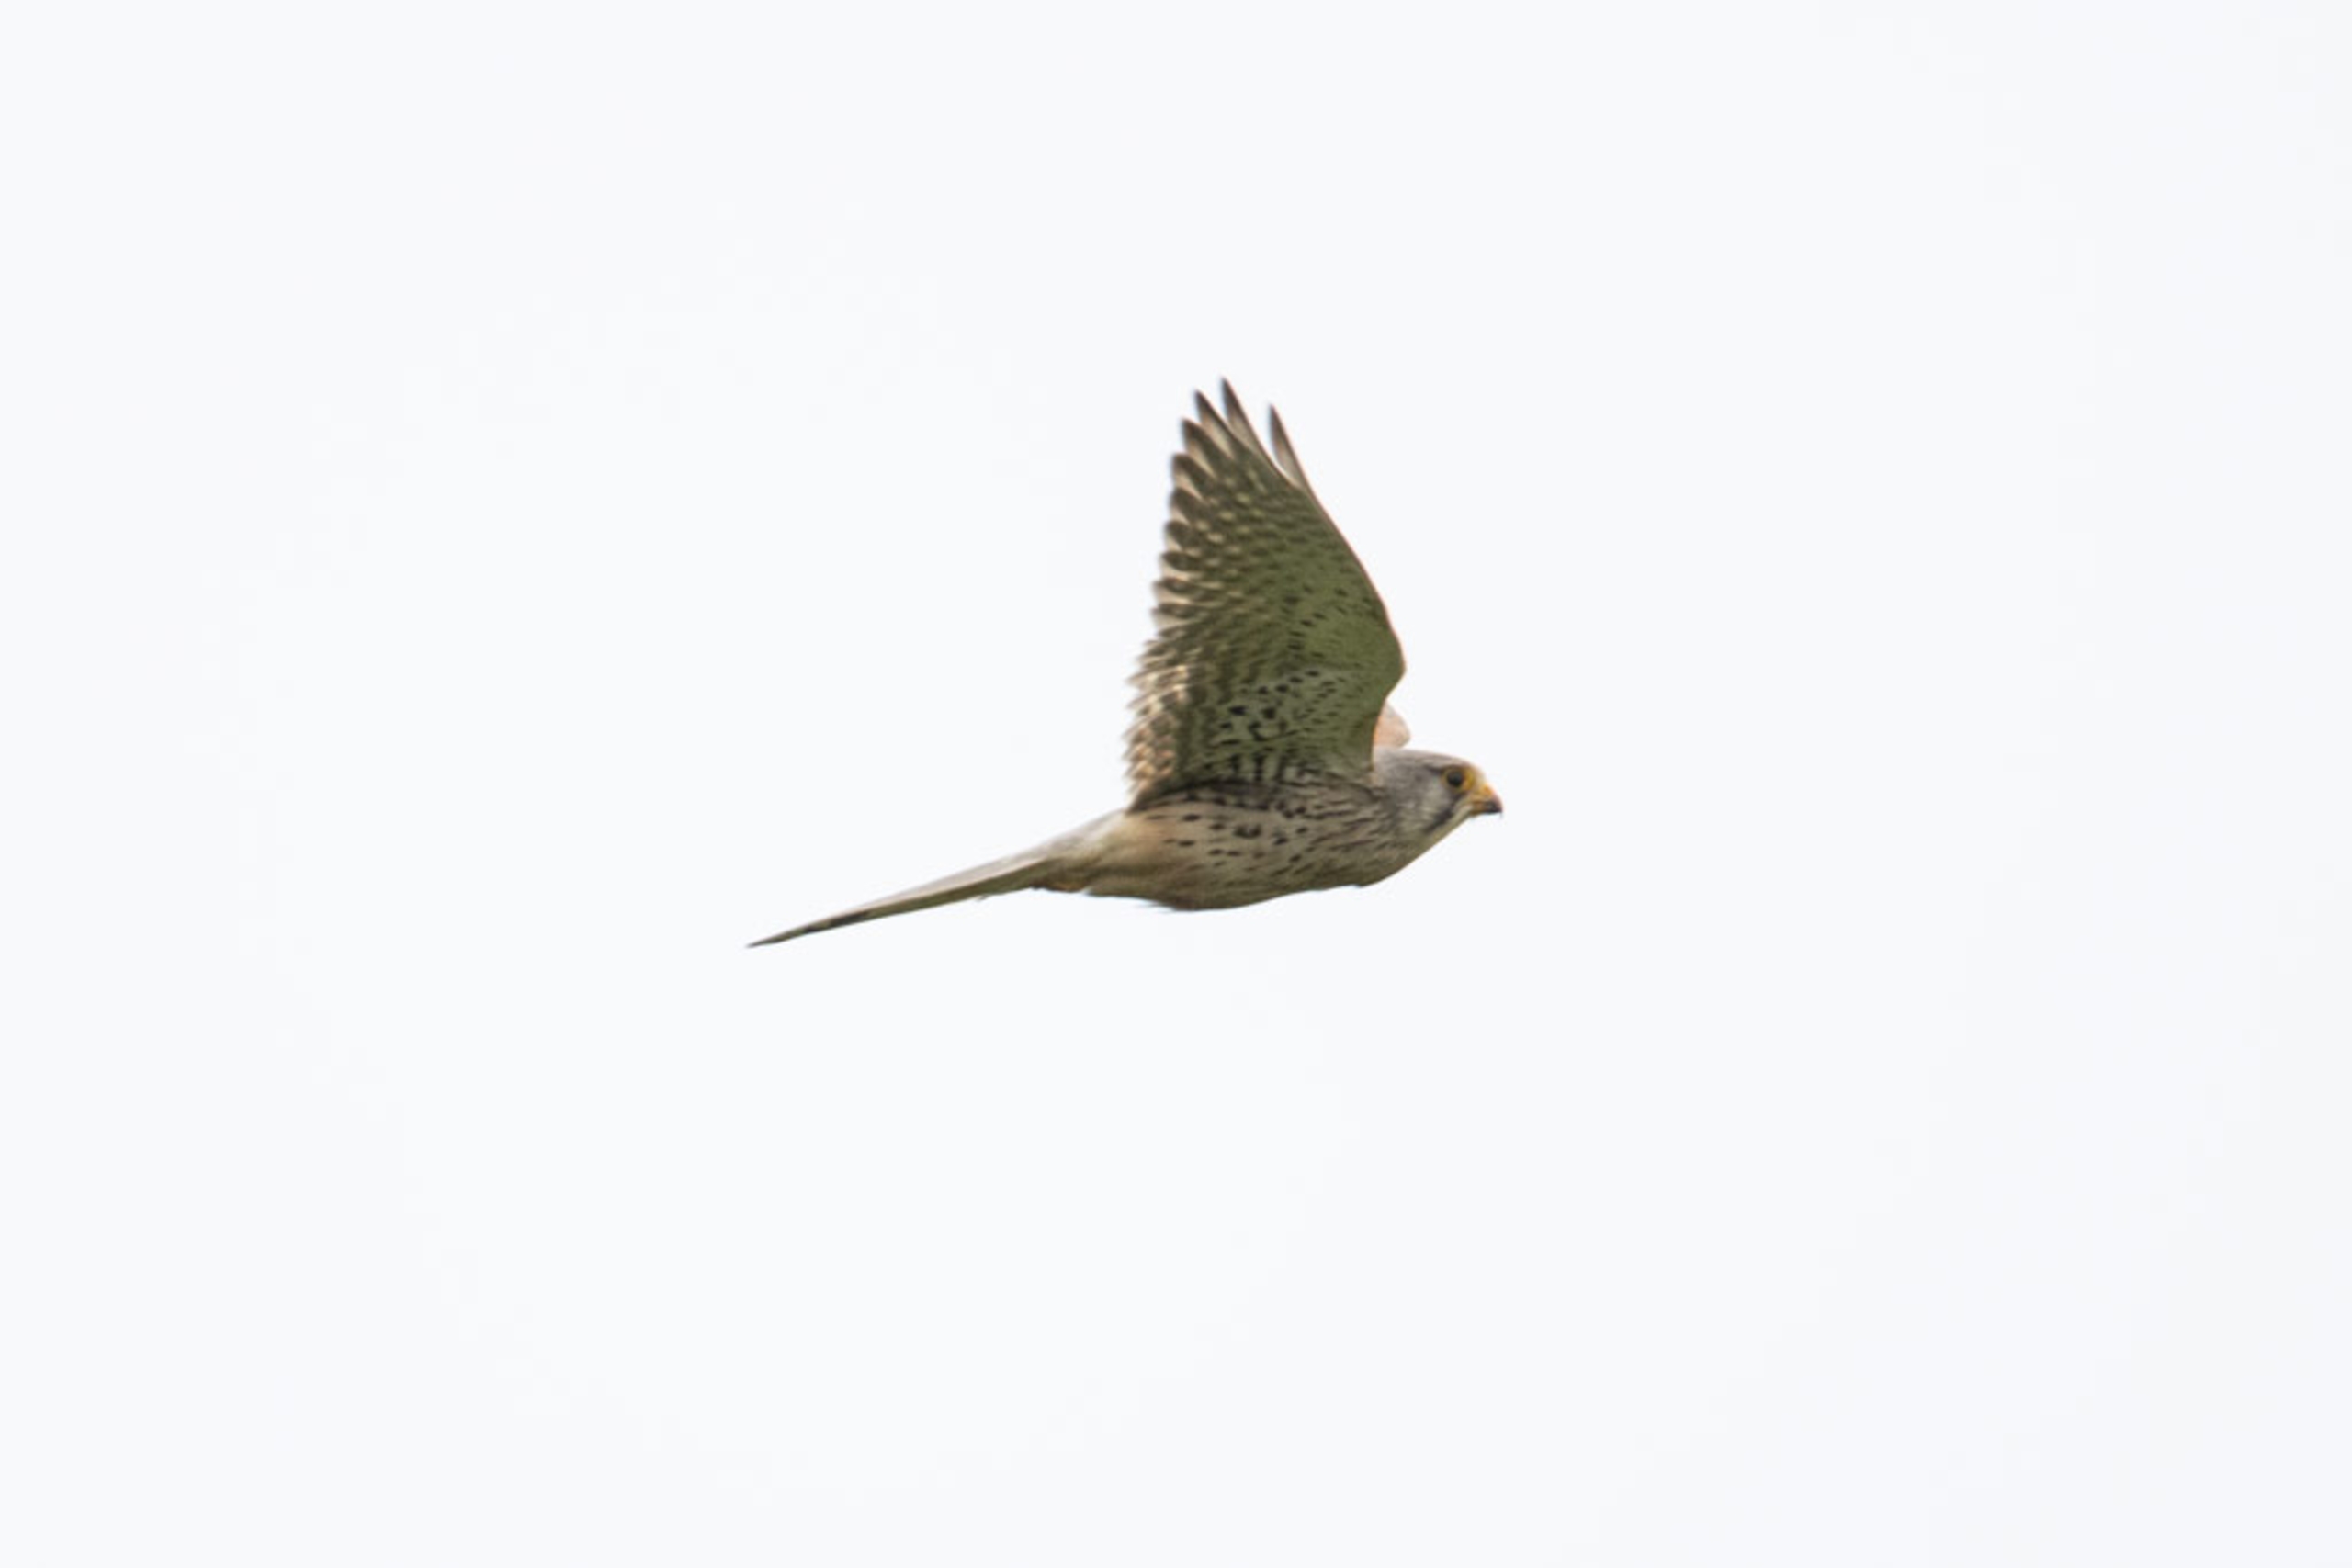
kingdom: Animalia
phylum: Chordata
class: Aves
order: Falconiformes
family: Falconidae
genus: Falco
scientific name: Falco tinnunculus
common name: Tårnfalk
